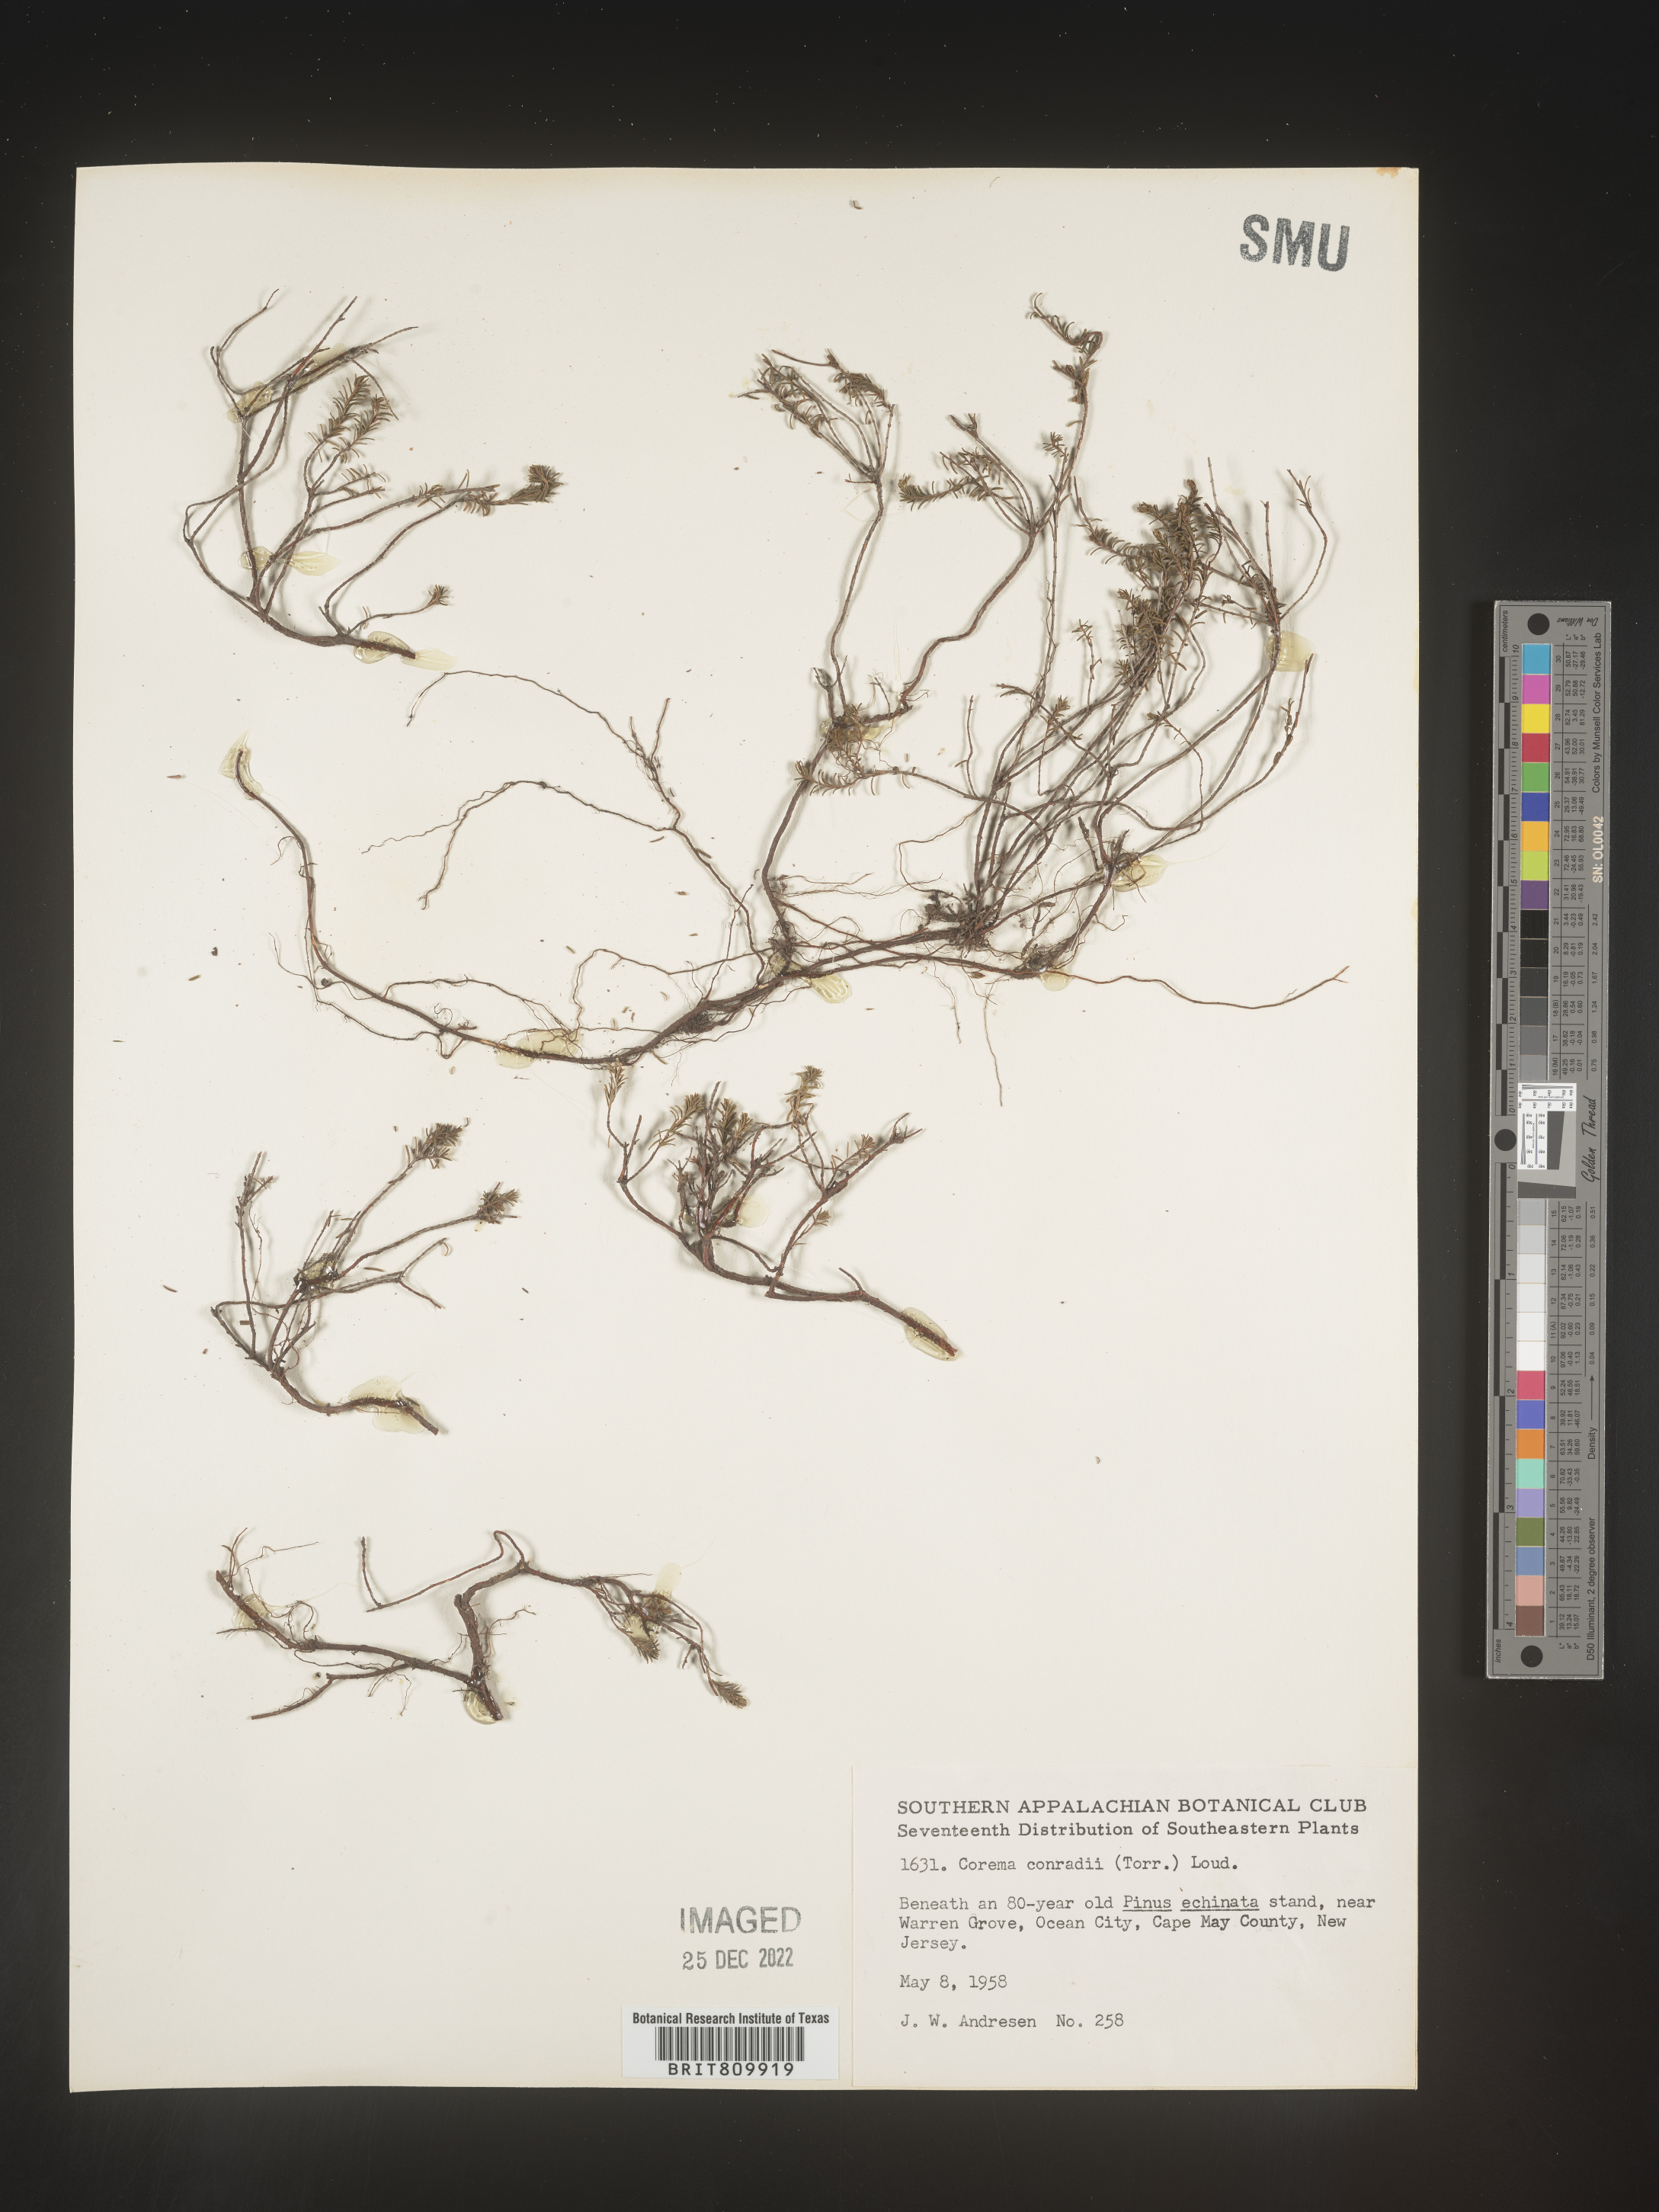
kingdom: Plantae
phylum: Tracheophyta
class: Magnoliopsida
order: Ericales
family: Ericaceae
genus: Corema
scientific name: Corema
